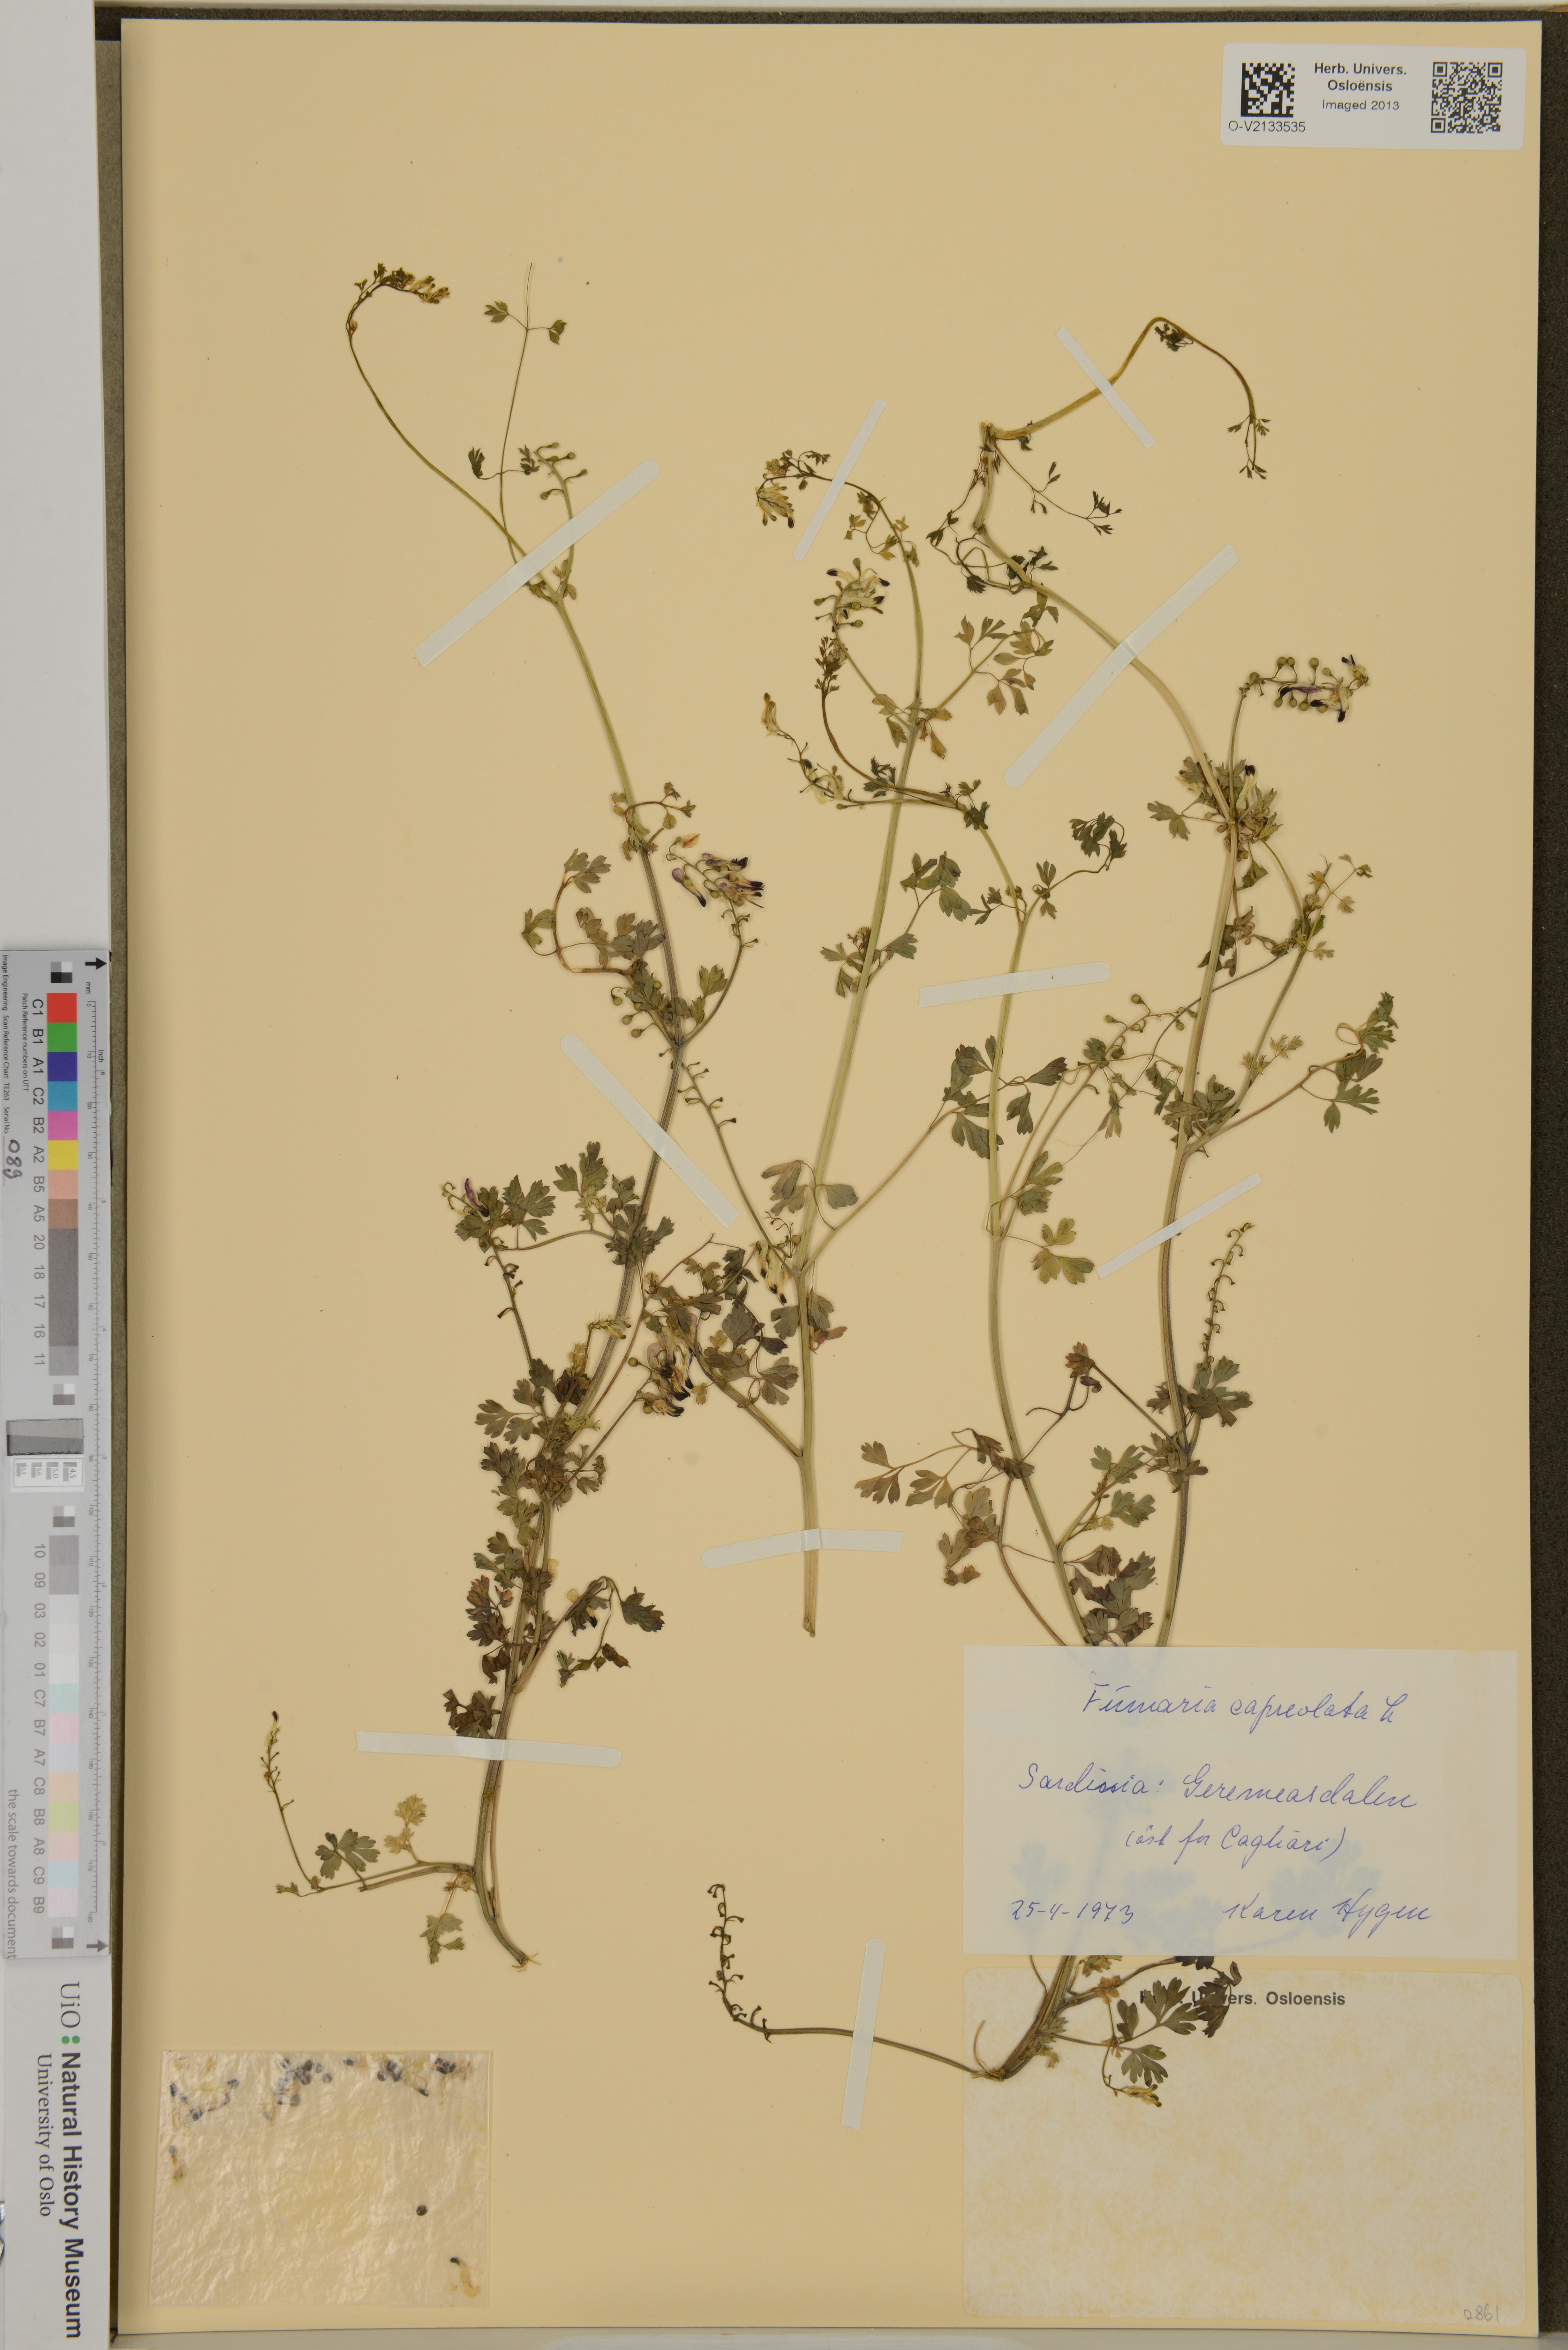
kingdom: Plantae
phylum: Tracheophyta
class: Magnoliopsida
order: Ranunculales
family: Papaveraceae
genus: Fumaria
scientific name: Fumaria capreolata
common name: White ramping-fumitory
